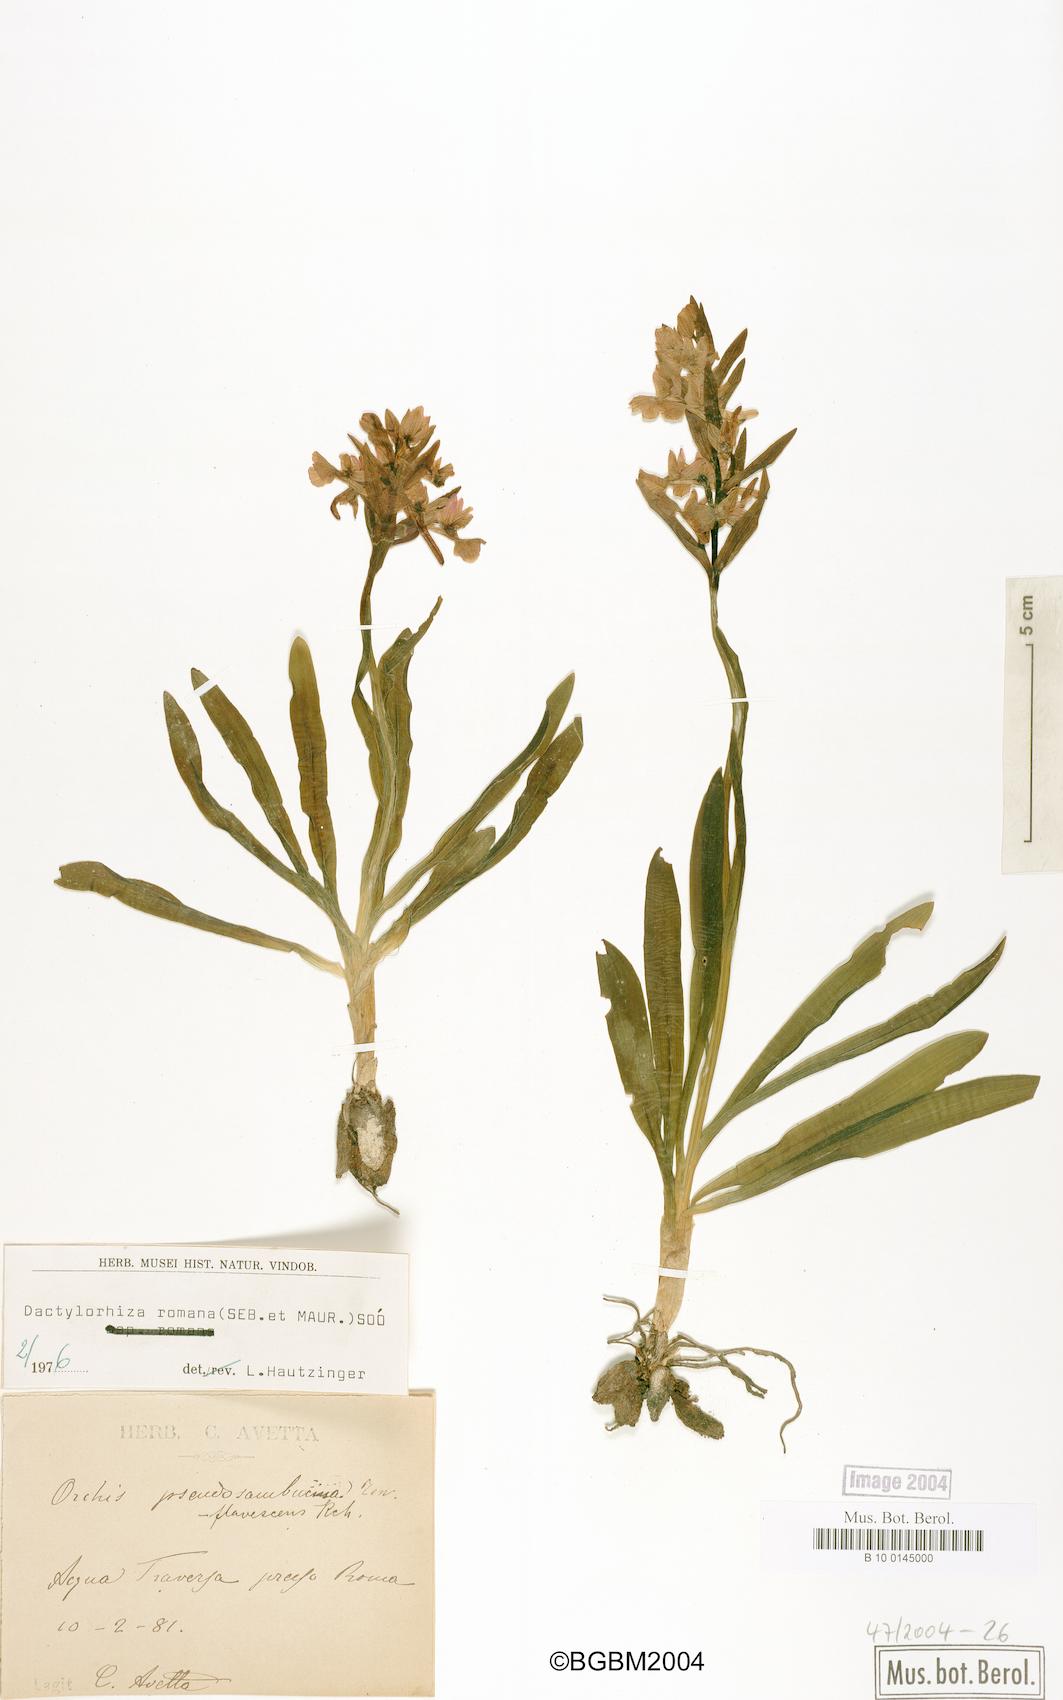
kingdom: Plantae
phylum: Tracheophyta
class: Liliopsida
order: Asparagales
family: Orchidaceae
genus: Dactylorhiza
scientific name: Dactylorhiza romana
